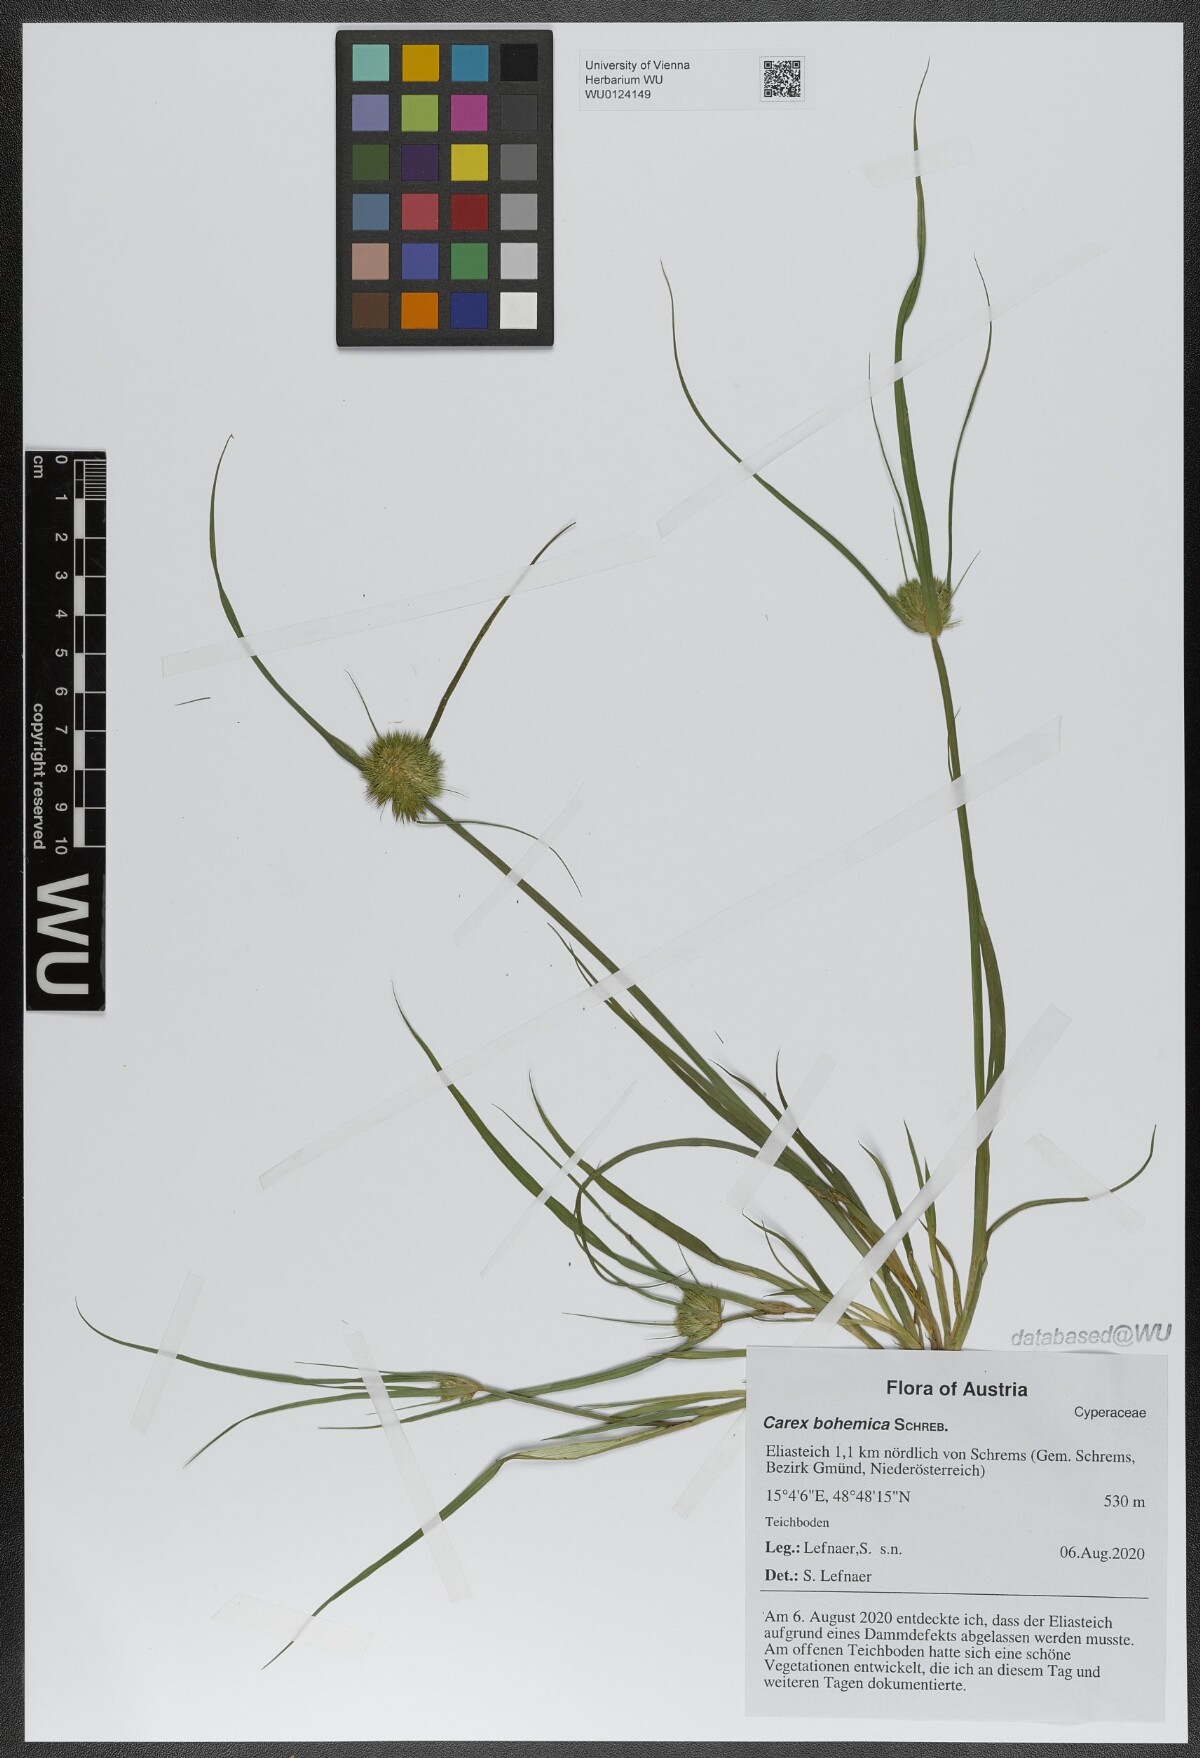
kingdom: Plantae
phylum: Tracheophyta
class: Liliopsida
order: Poales
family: Cyperaceae
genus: Carex
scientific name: Carex bohemica
